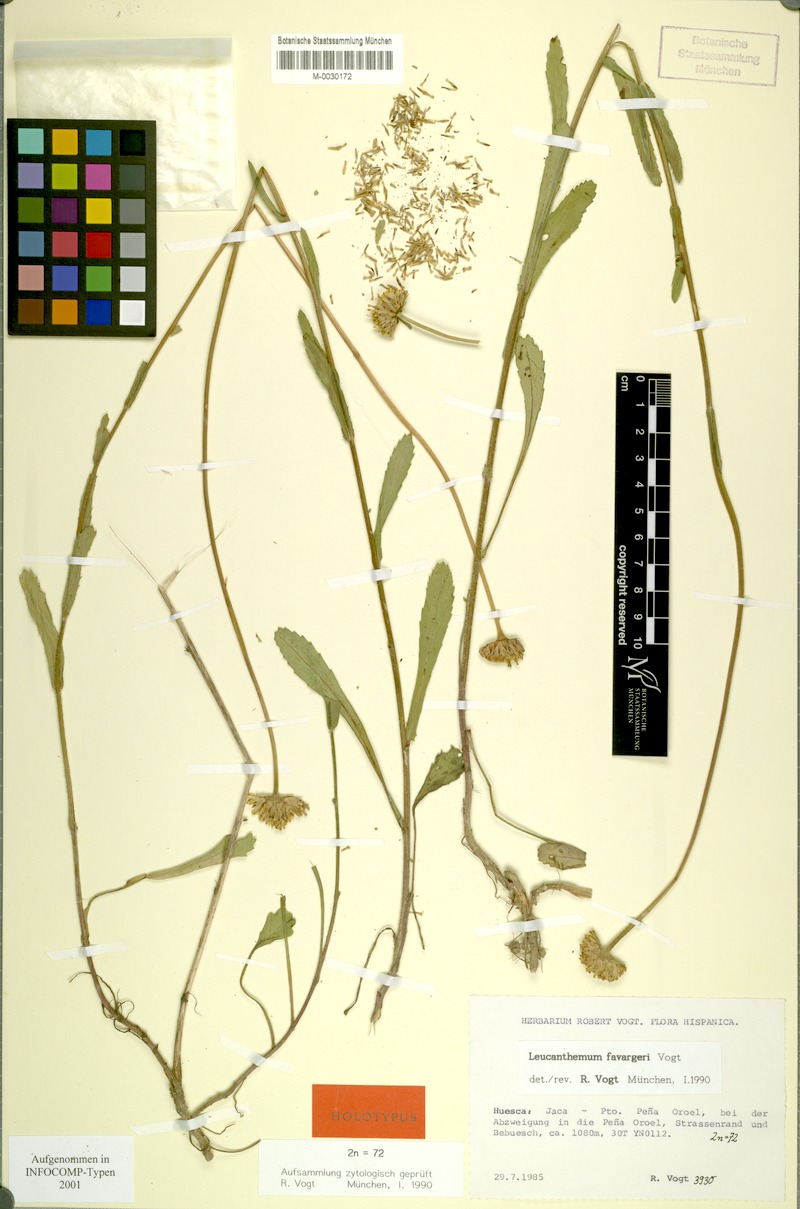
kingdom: Plantae
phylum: Tracheophyta
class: Magnoliopsida
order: Asterales
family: Asteraceae
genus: Leucanthemum
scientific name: Leucanthemum favargeri
